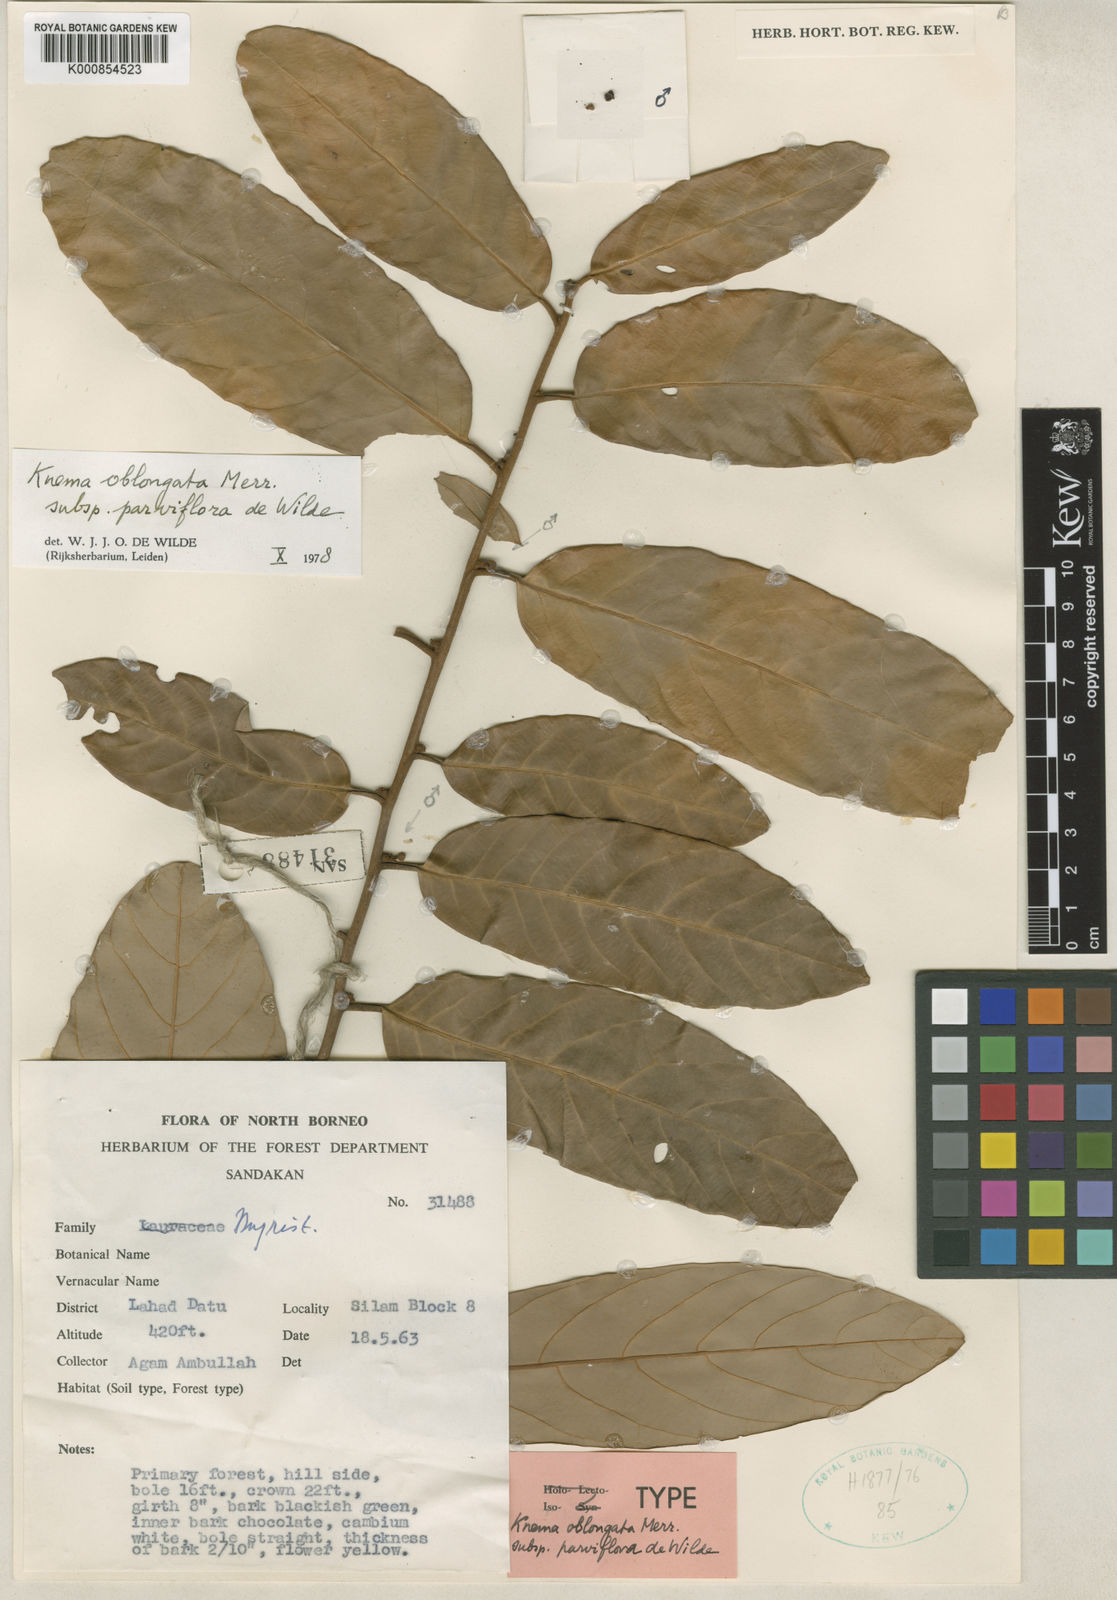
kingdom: Plantae
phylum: Tracheophyta
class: Magnoliopsida
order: Magnoliales
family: Myristicaceae
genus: Knema
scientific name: Knema oblongata
